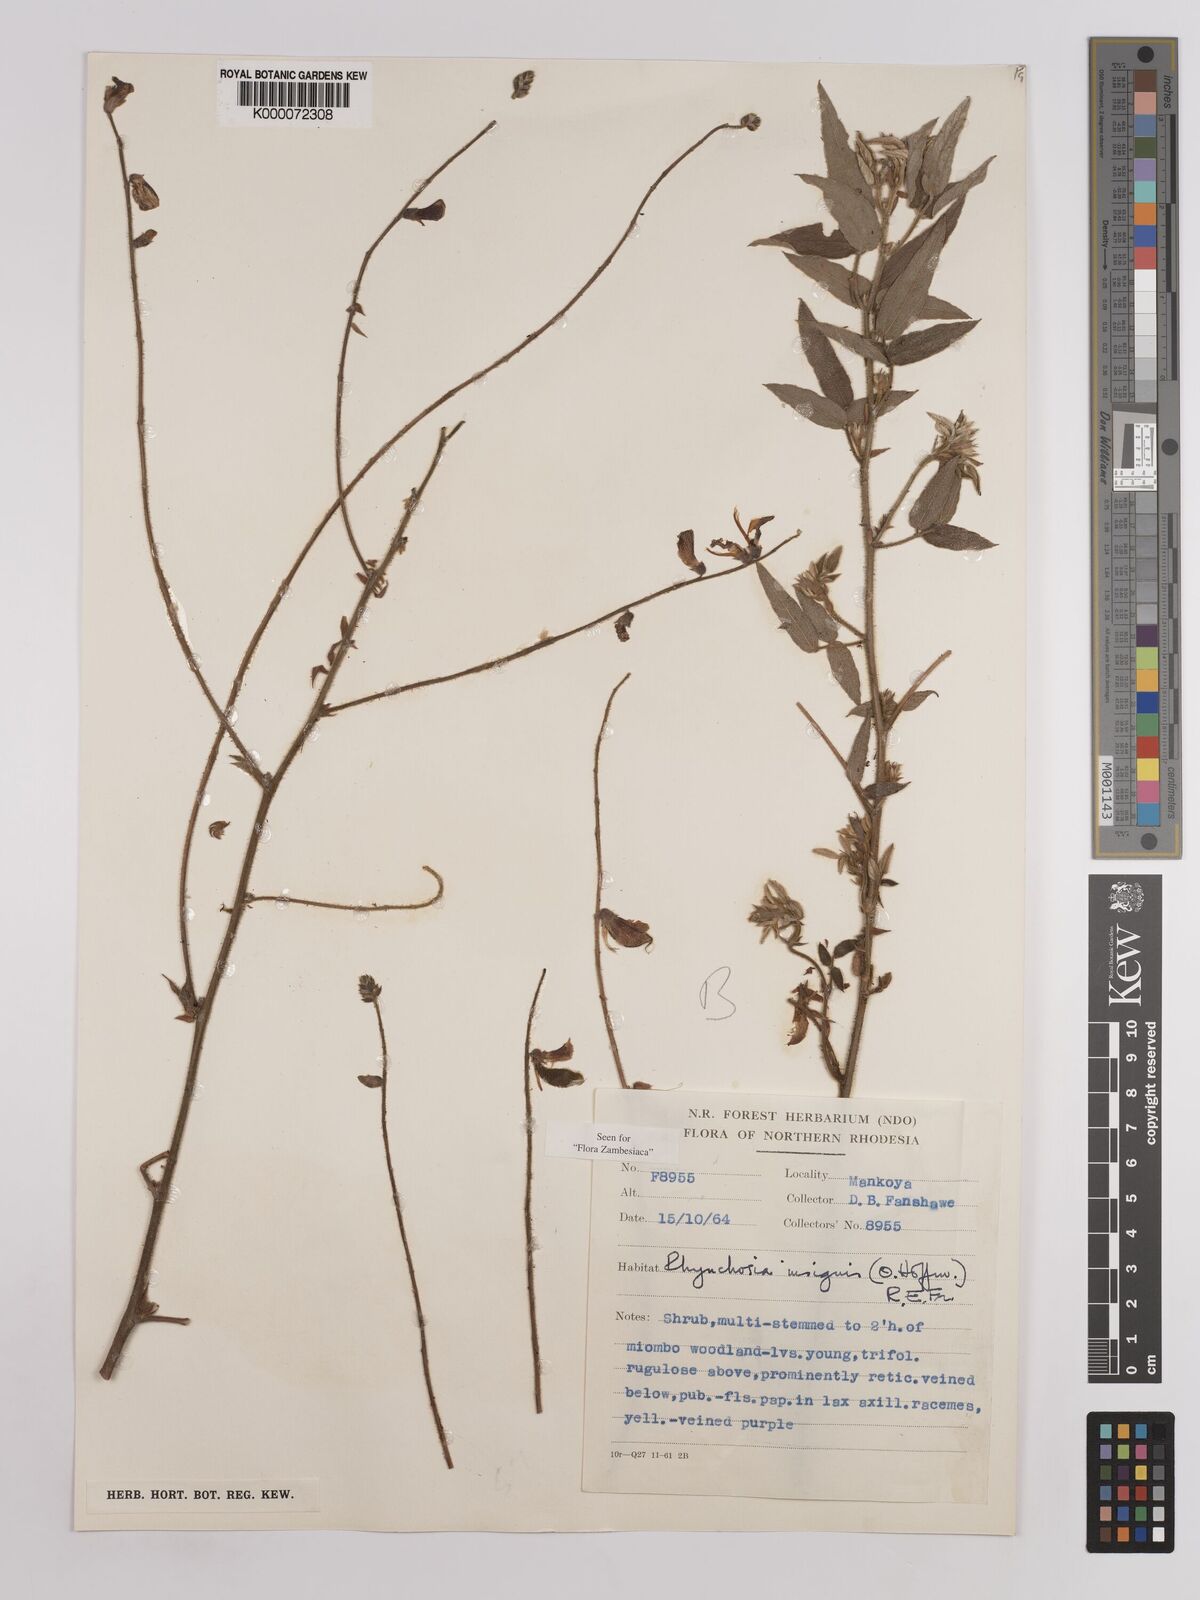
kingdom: Plantae
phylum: Tracheophyta
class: Magnoliopsida
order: Fabales
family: Fabaceae
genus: Rhynchosia
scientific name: Rhynchosia insignis
